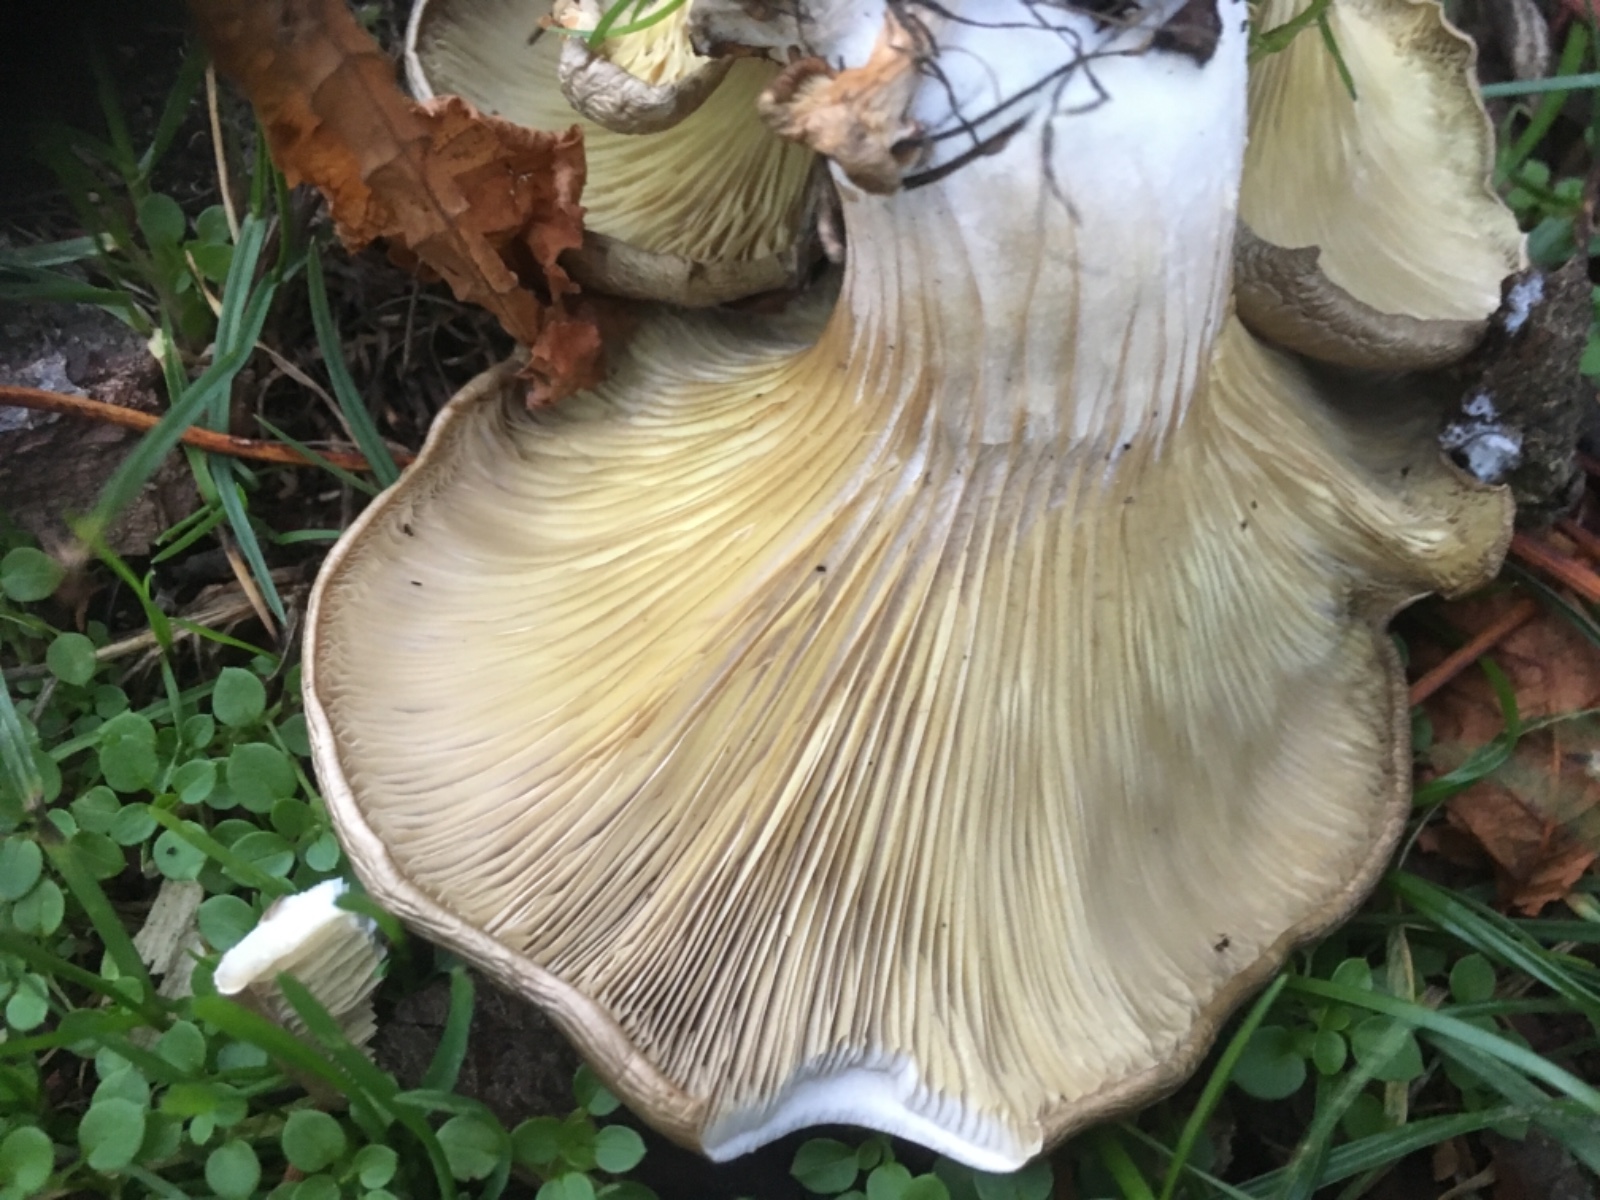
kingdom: Fungi
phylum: Basidiomycota
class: Agaricomycetes
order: Agaricales
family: Pleurotaceae
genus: Pleurotus
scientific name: Pleurotus ostreatus
